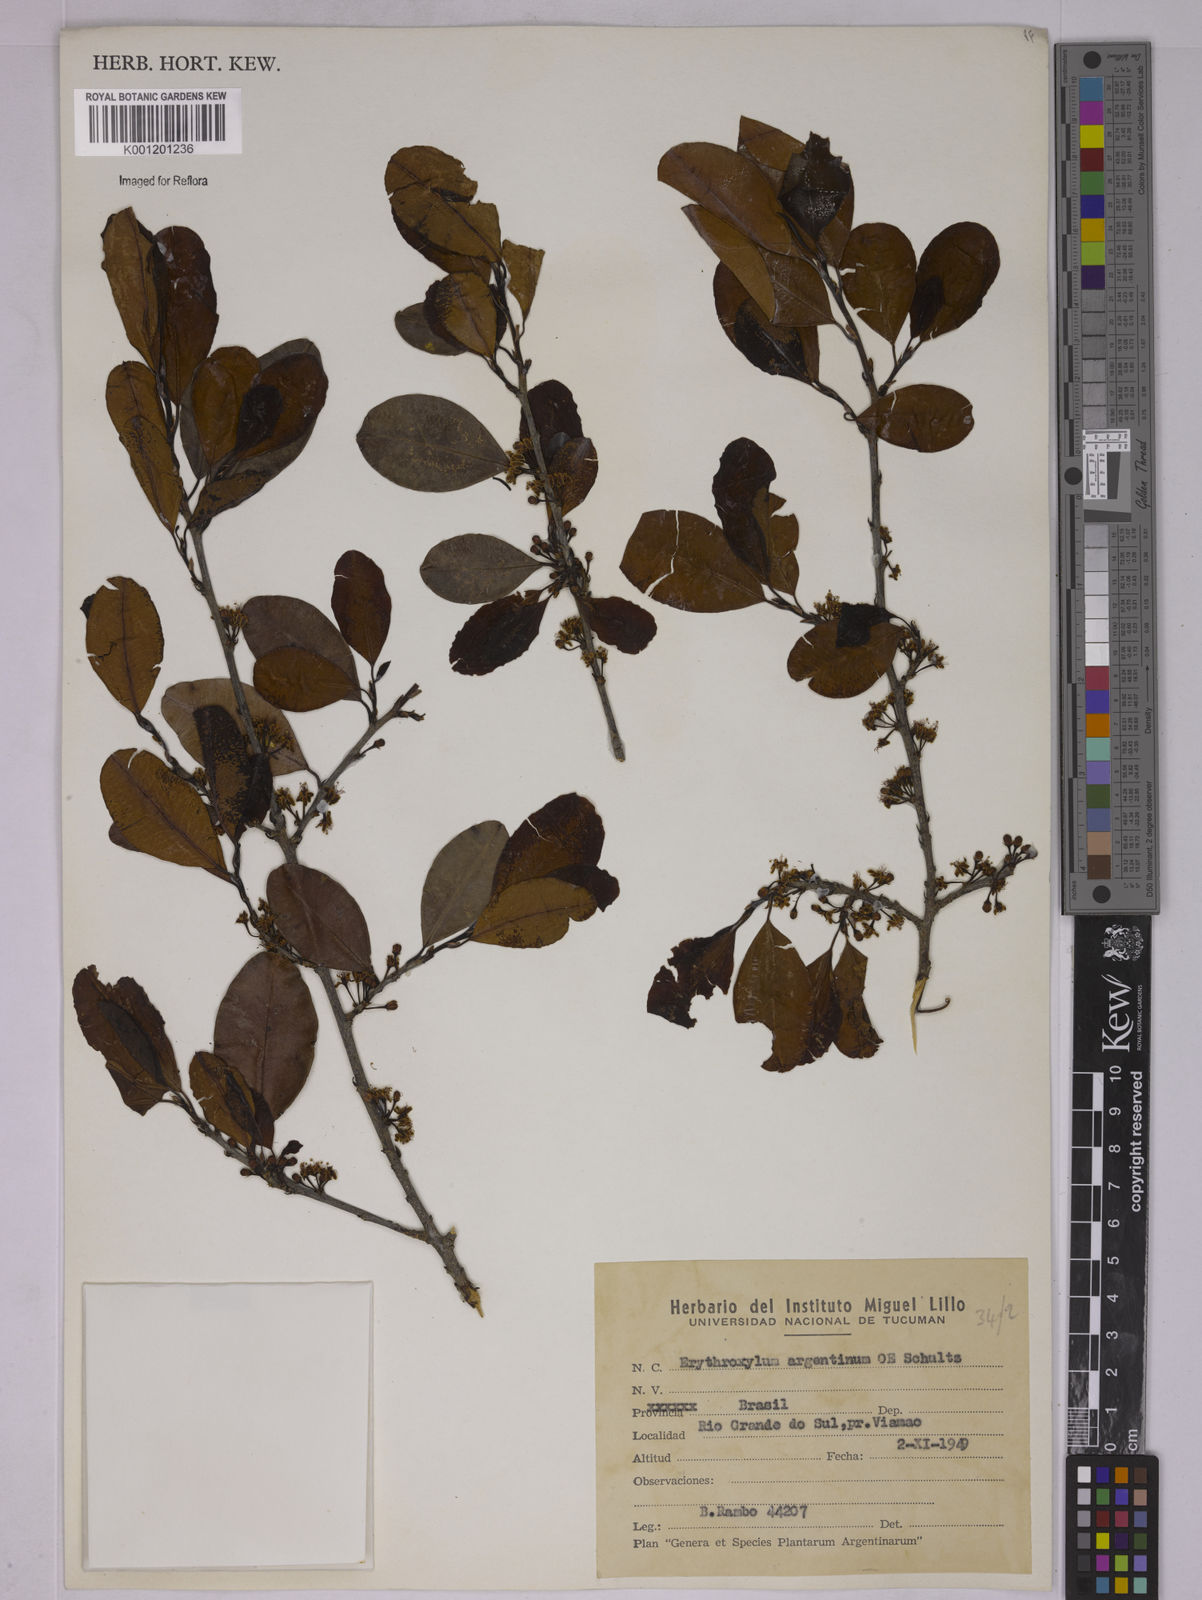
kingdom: Plantae
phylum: Tracheophyta
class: Magnoliopsida
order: Malpighiales
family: Erythroxylaceae
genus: Erythroxylum
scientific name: Erythroxylum argentinum
